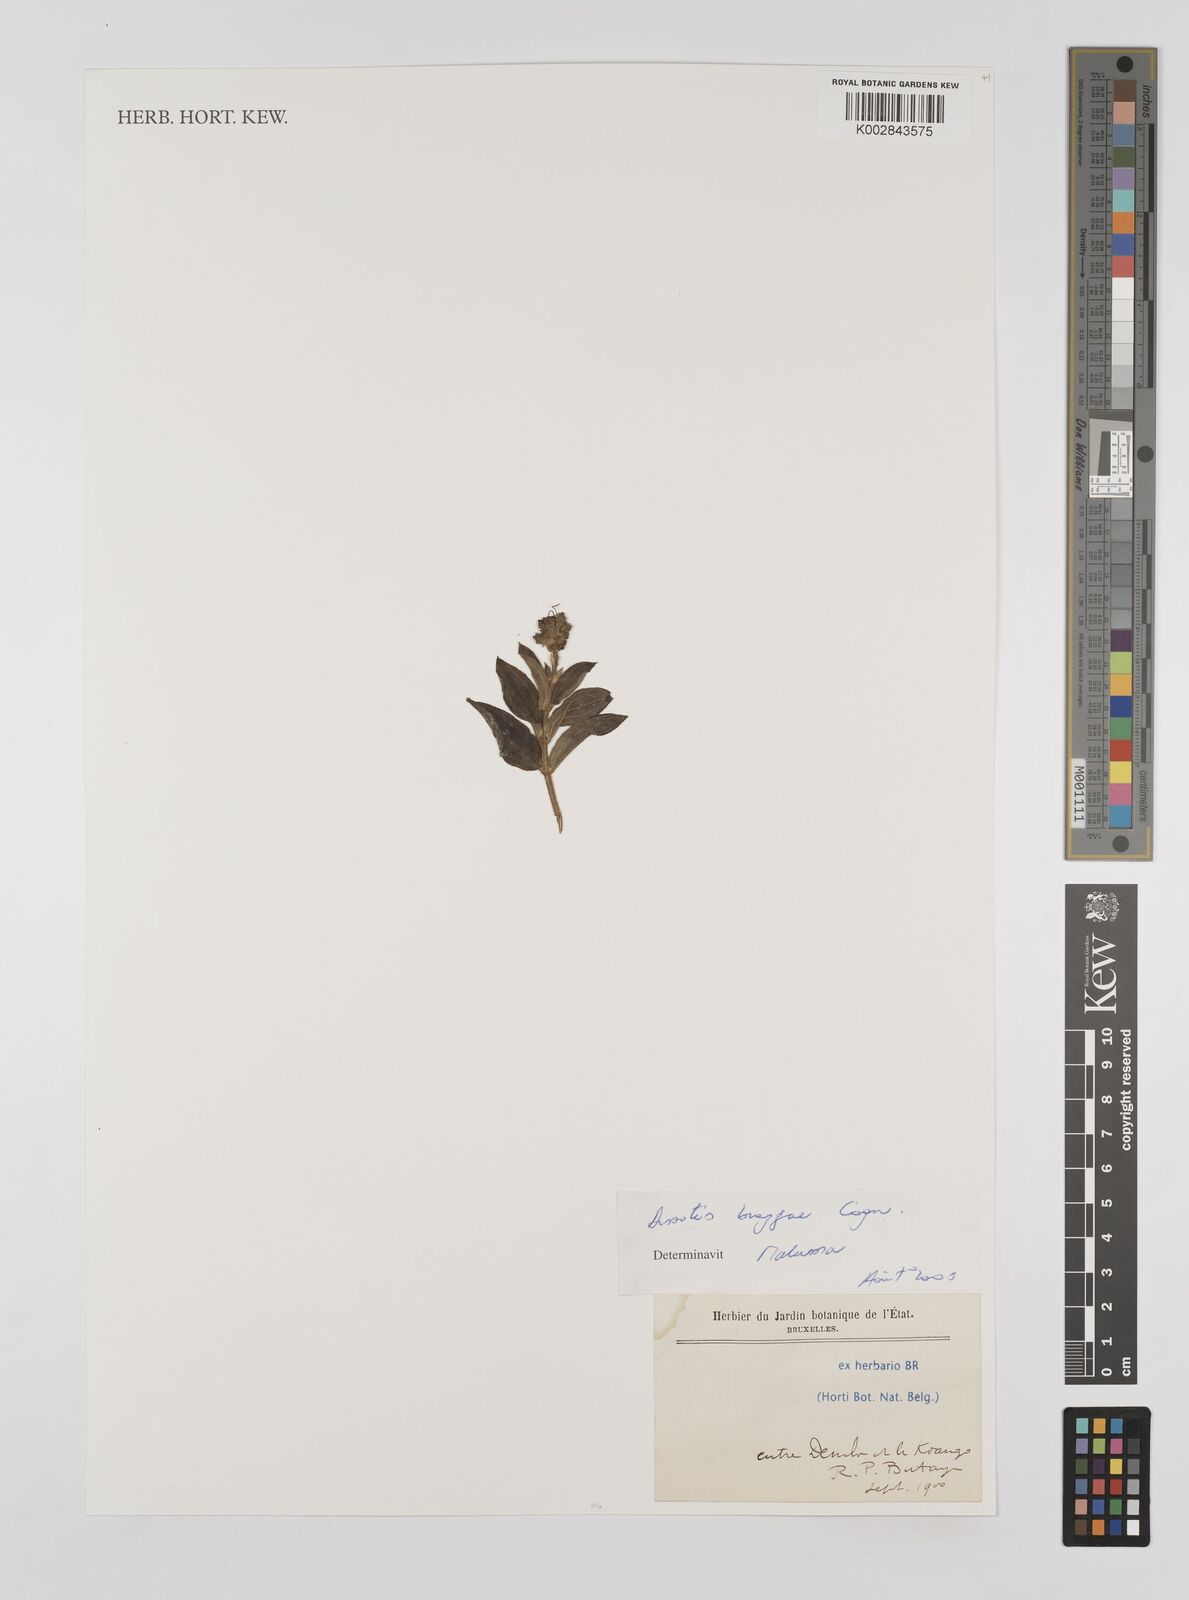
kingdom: Plantae
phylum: Tracheophyta
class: Magnoliopsida
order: Myrtales
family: Melastomataceae
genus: Dupineta
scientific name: Dupineta brazzae
